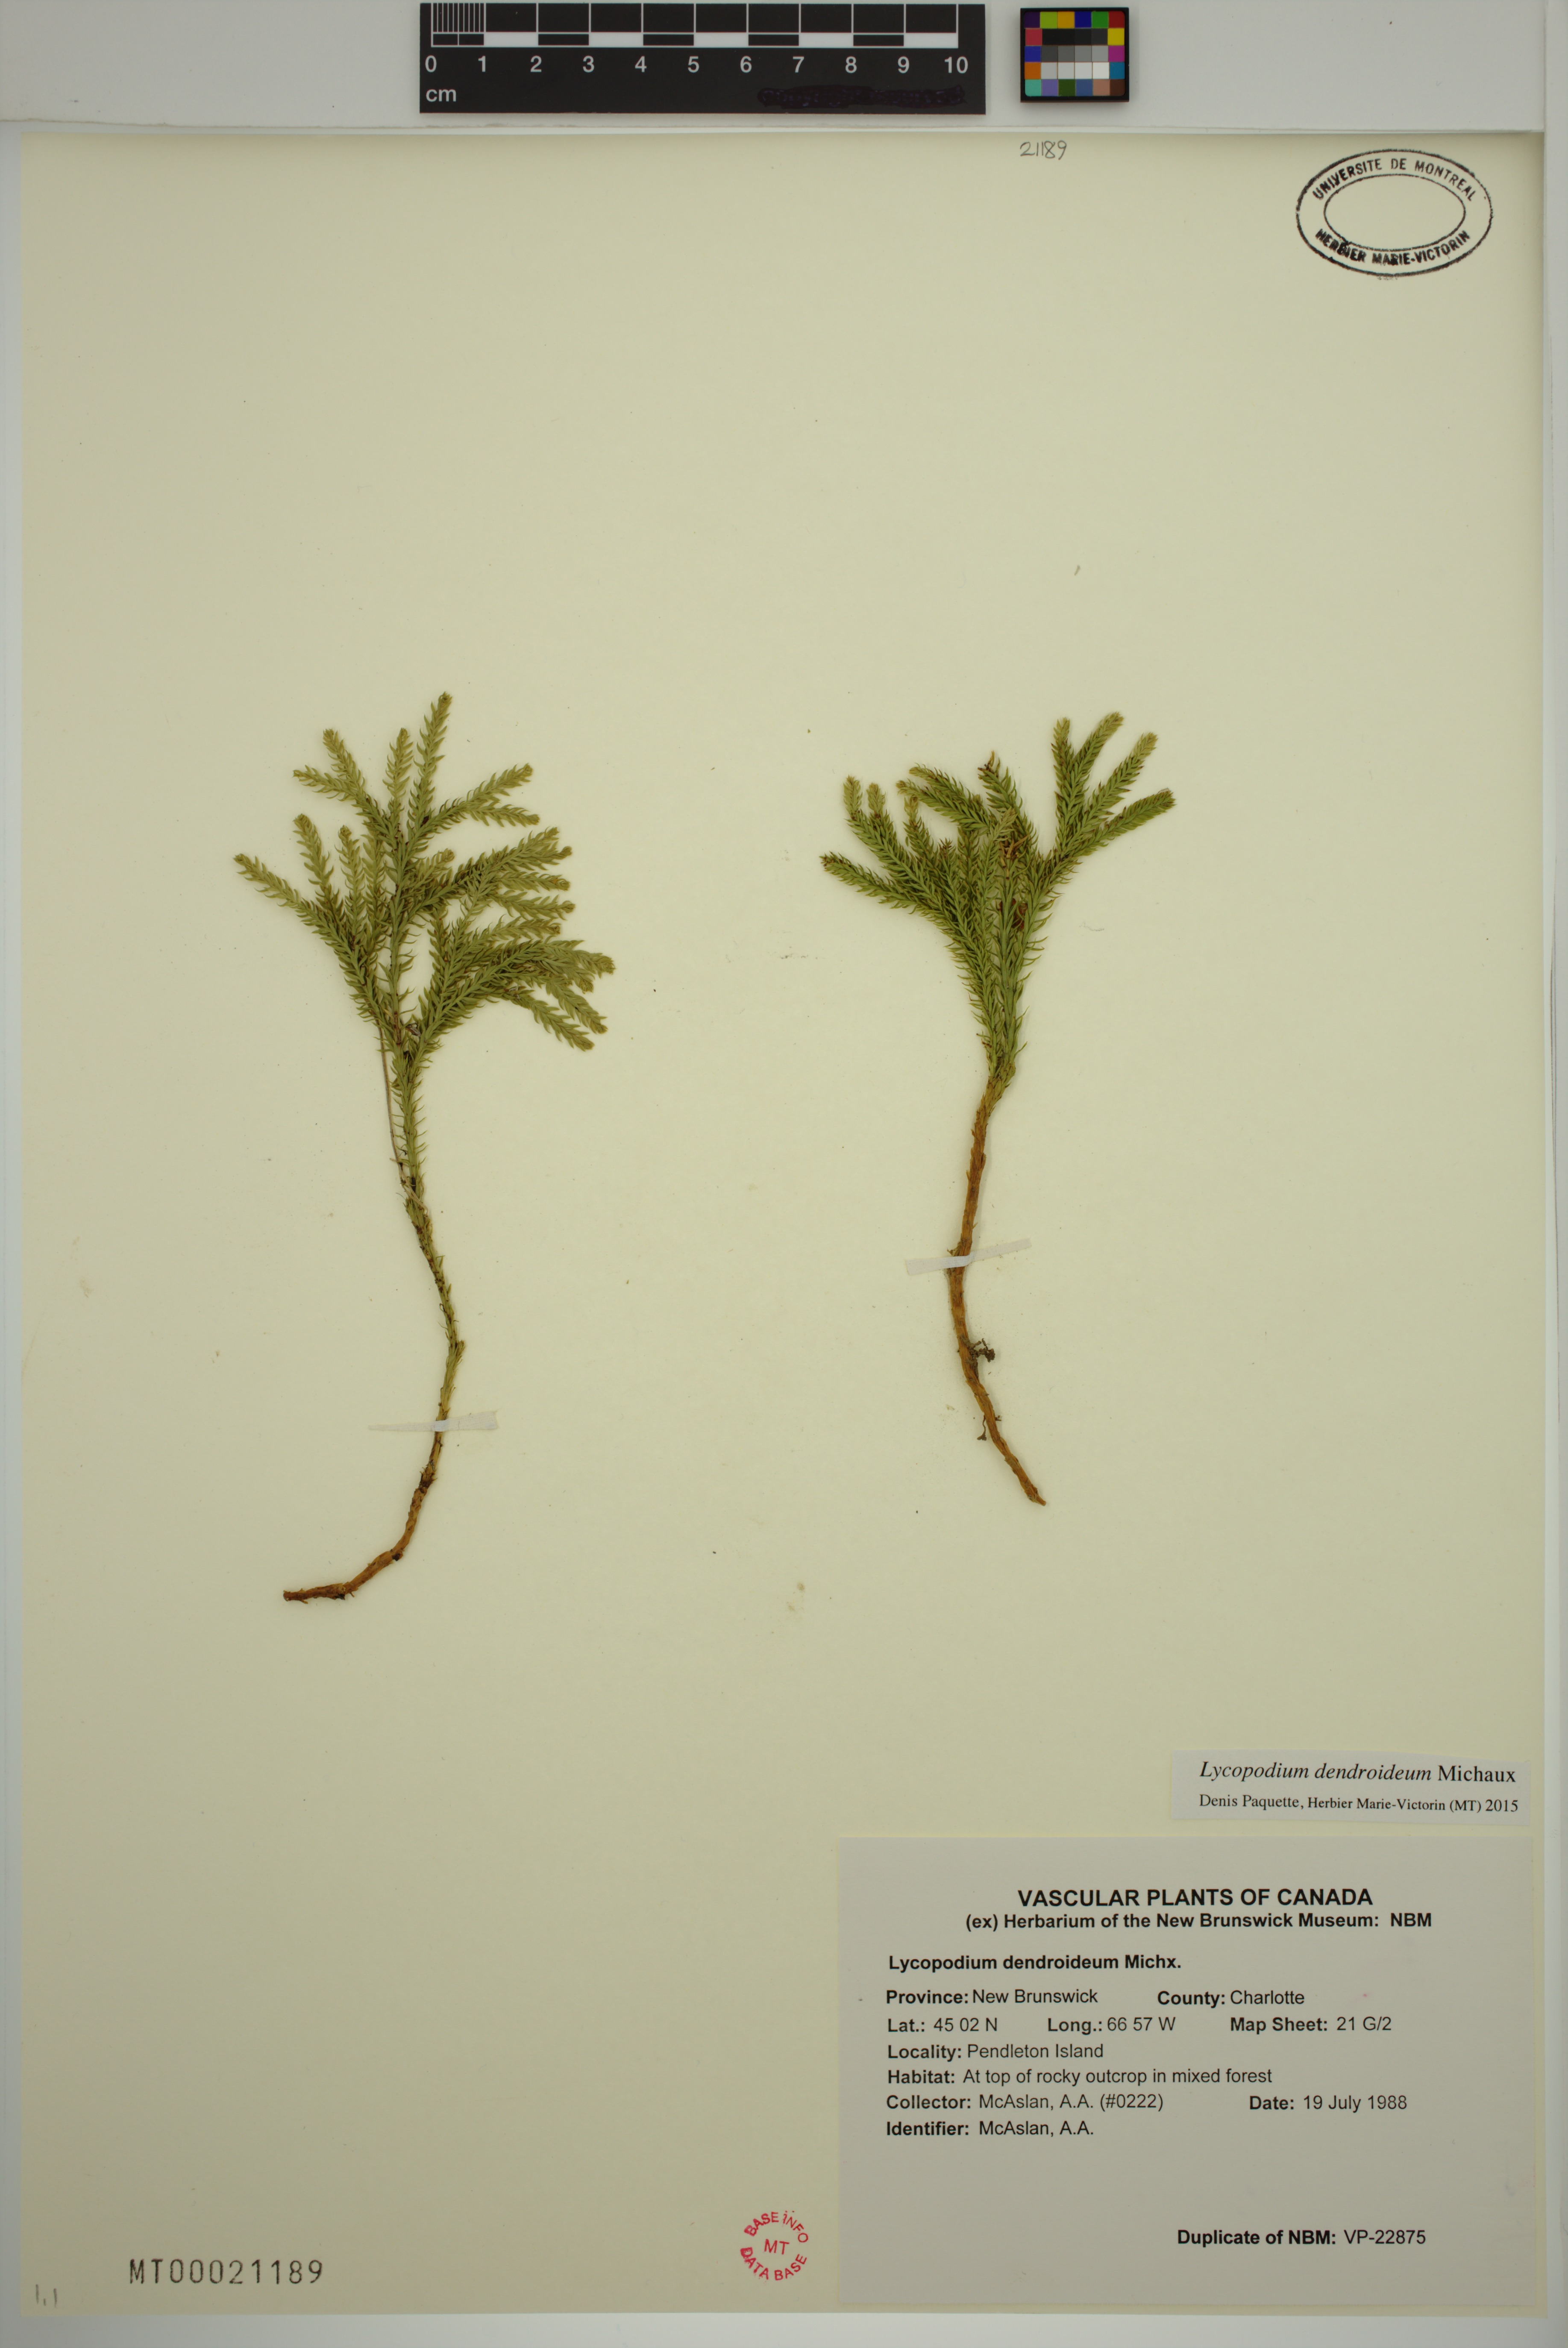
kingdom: Plantae
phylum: Tracheophyta
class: Lycopodiopsida
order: Lycopodiales
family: Lycopodiaceae
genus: Dendrolycopodium
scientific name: Dendrolycopodium dendroideum
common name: Northern tree-clubmoss
